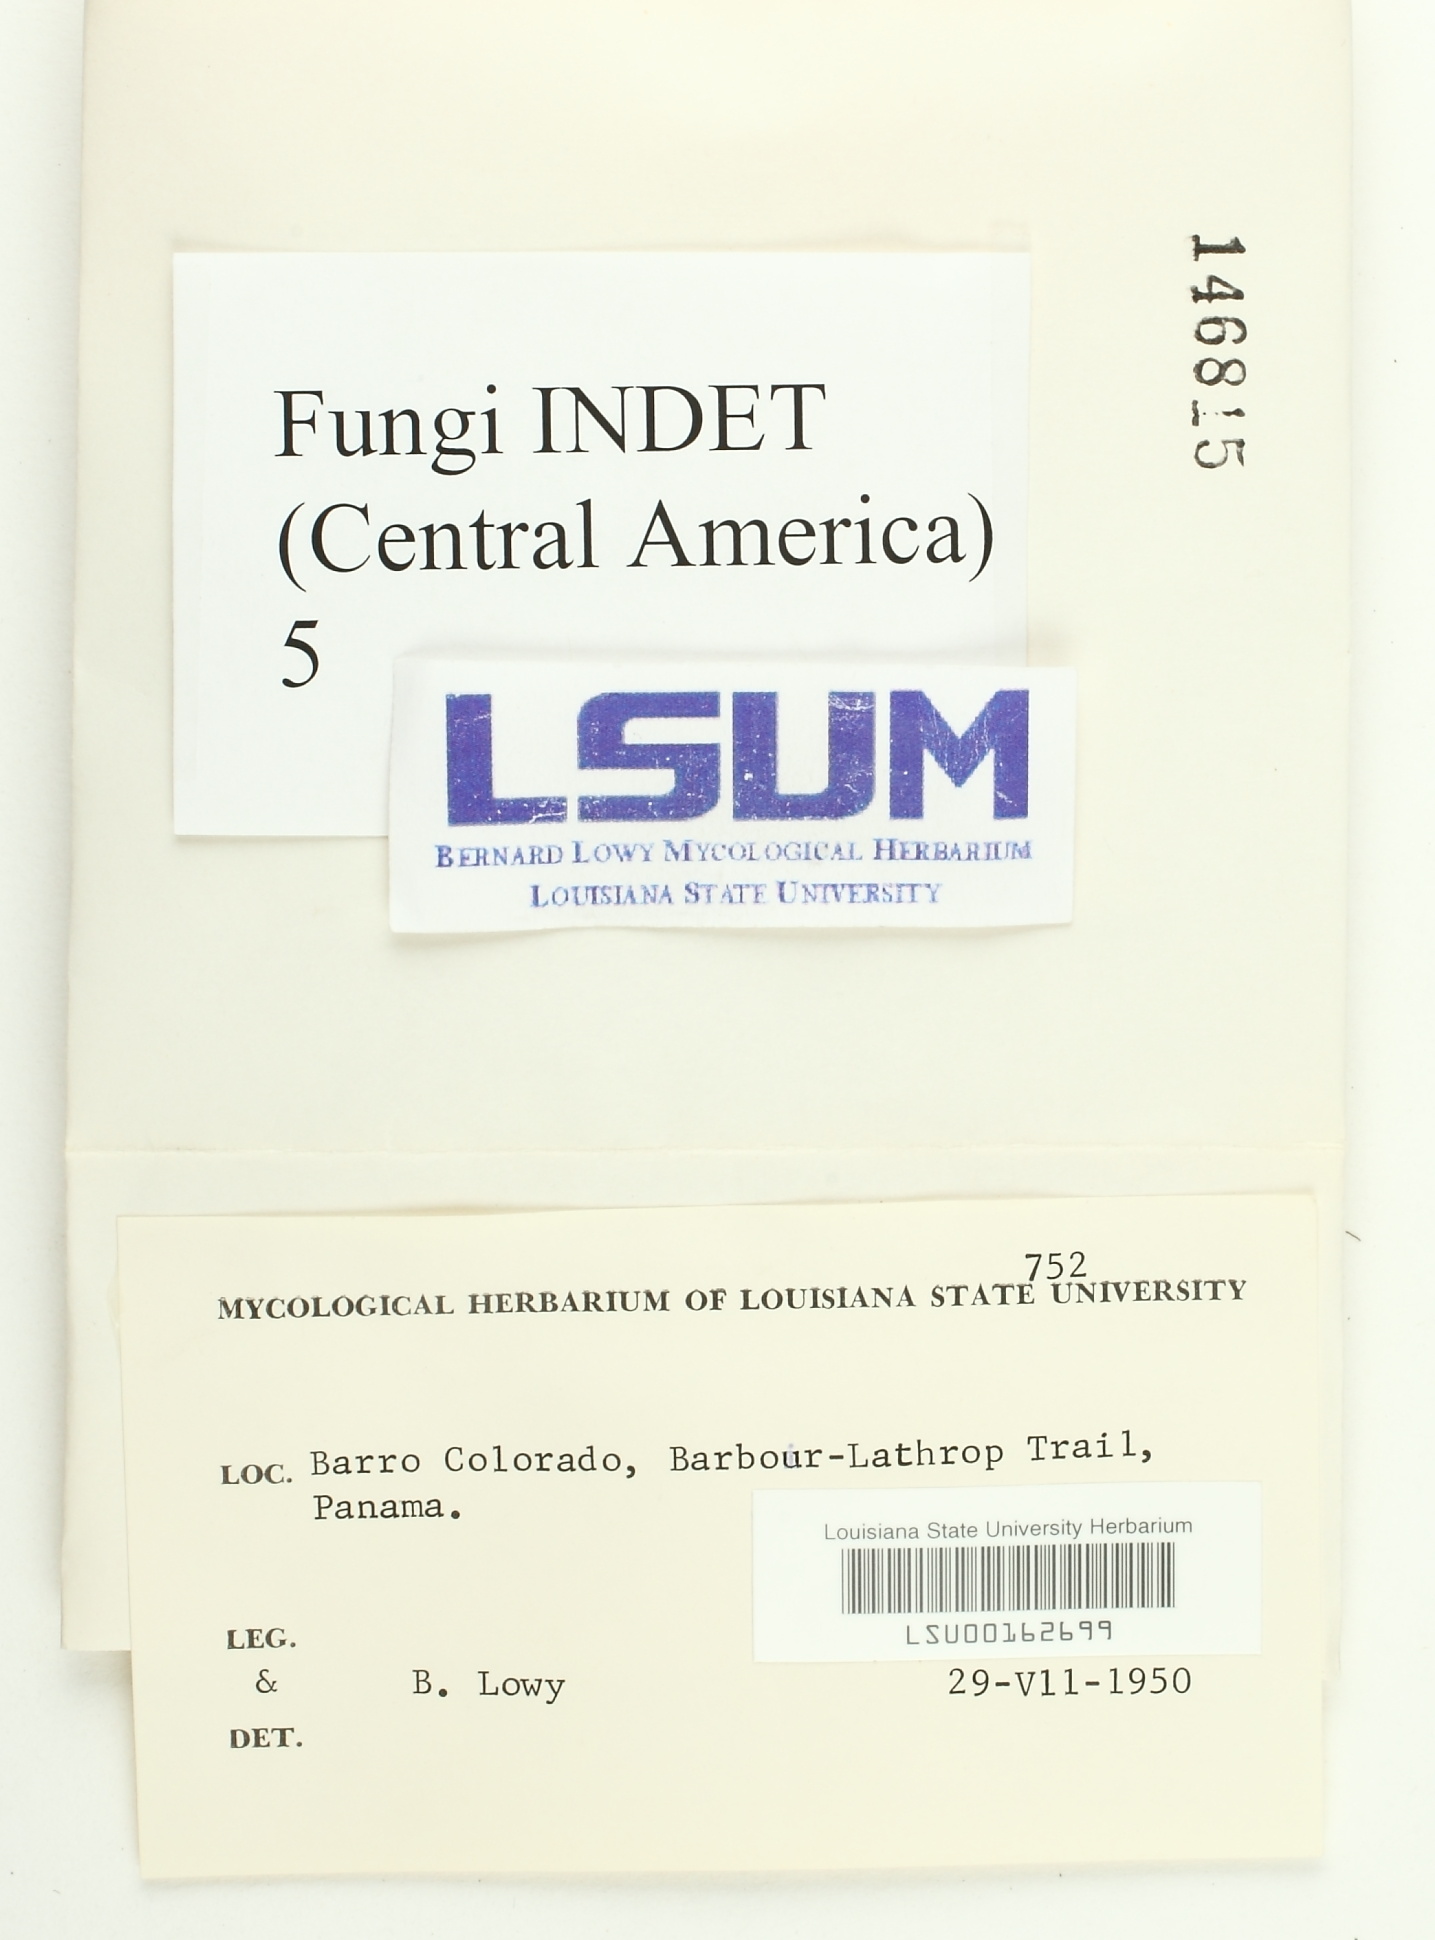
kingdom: Fungi
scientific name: Fungi
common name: Fungi
